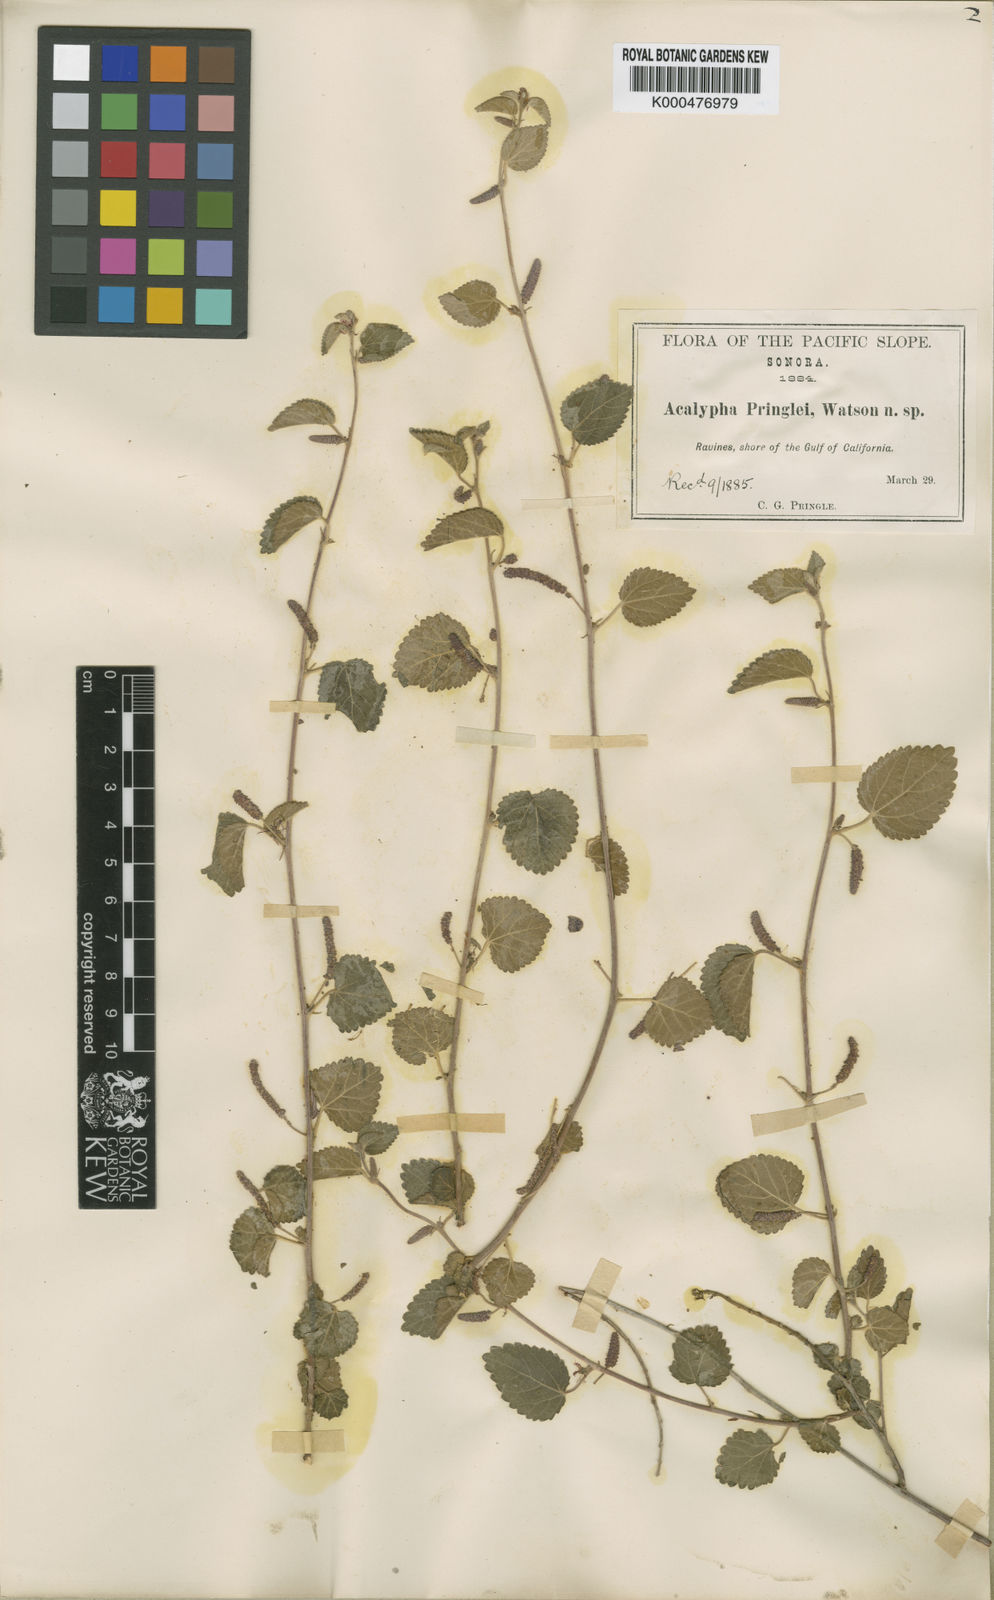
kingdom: Plantae
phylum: Tracheophyta
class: Magnoliopsida
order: Malpighiales
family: Euphorbiaceae
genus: Acalypha
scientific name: Acalypha californica
